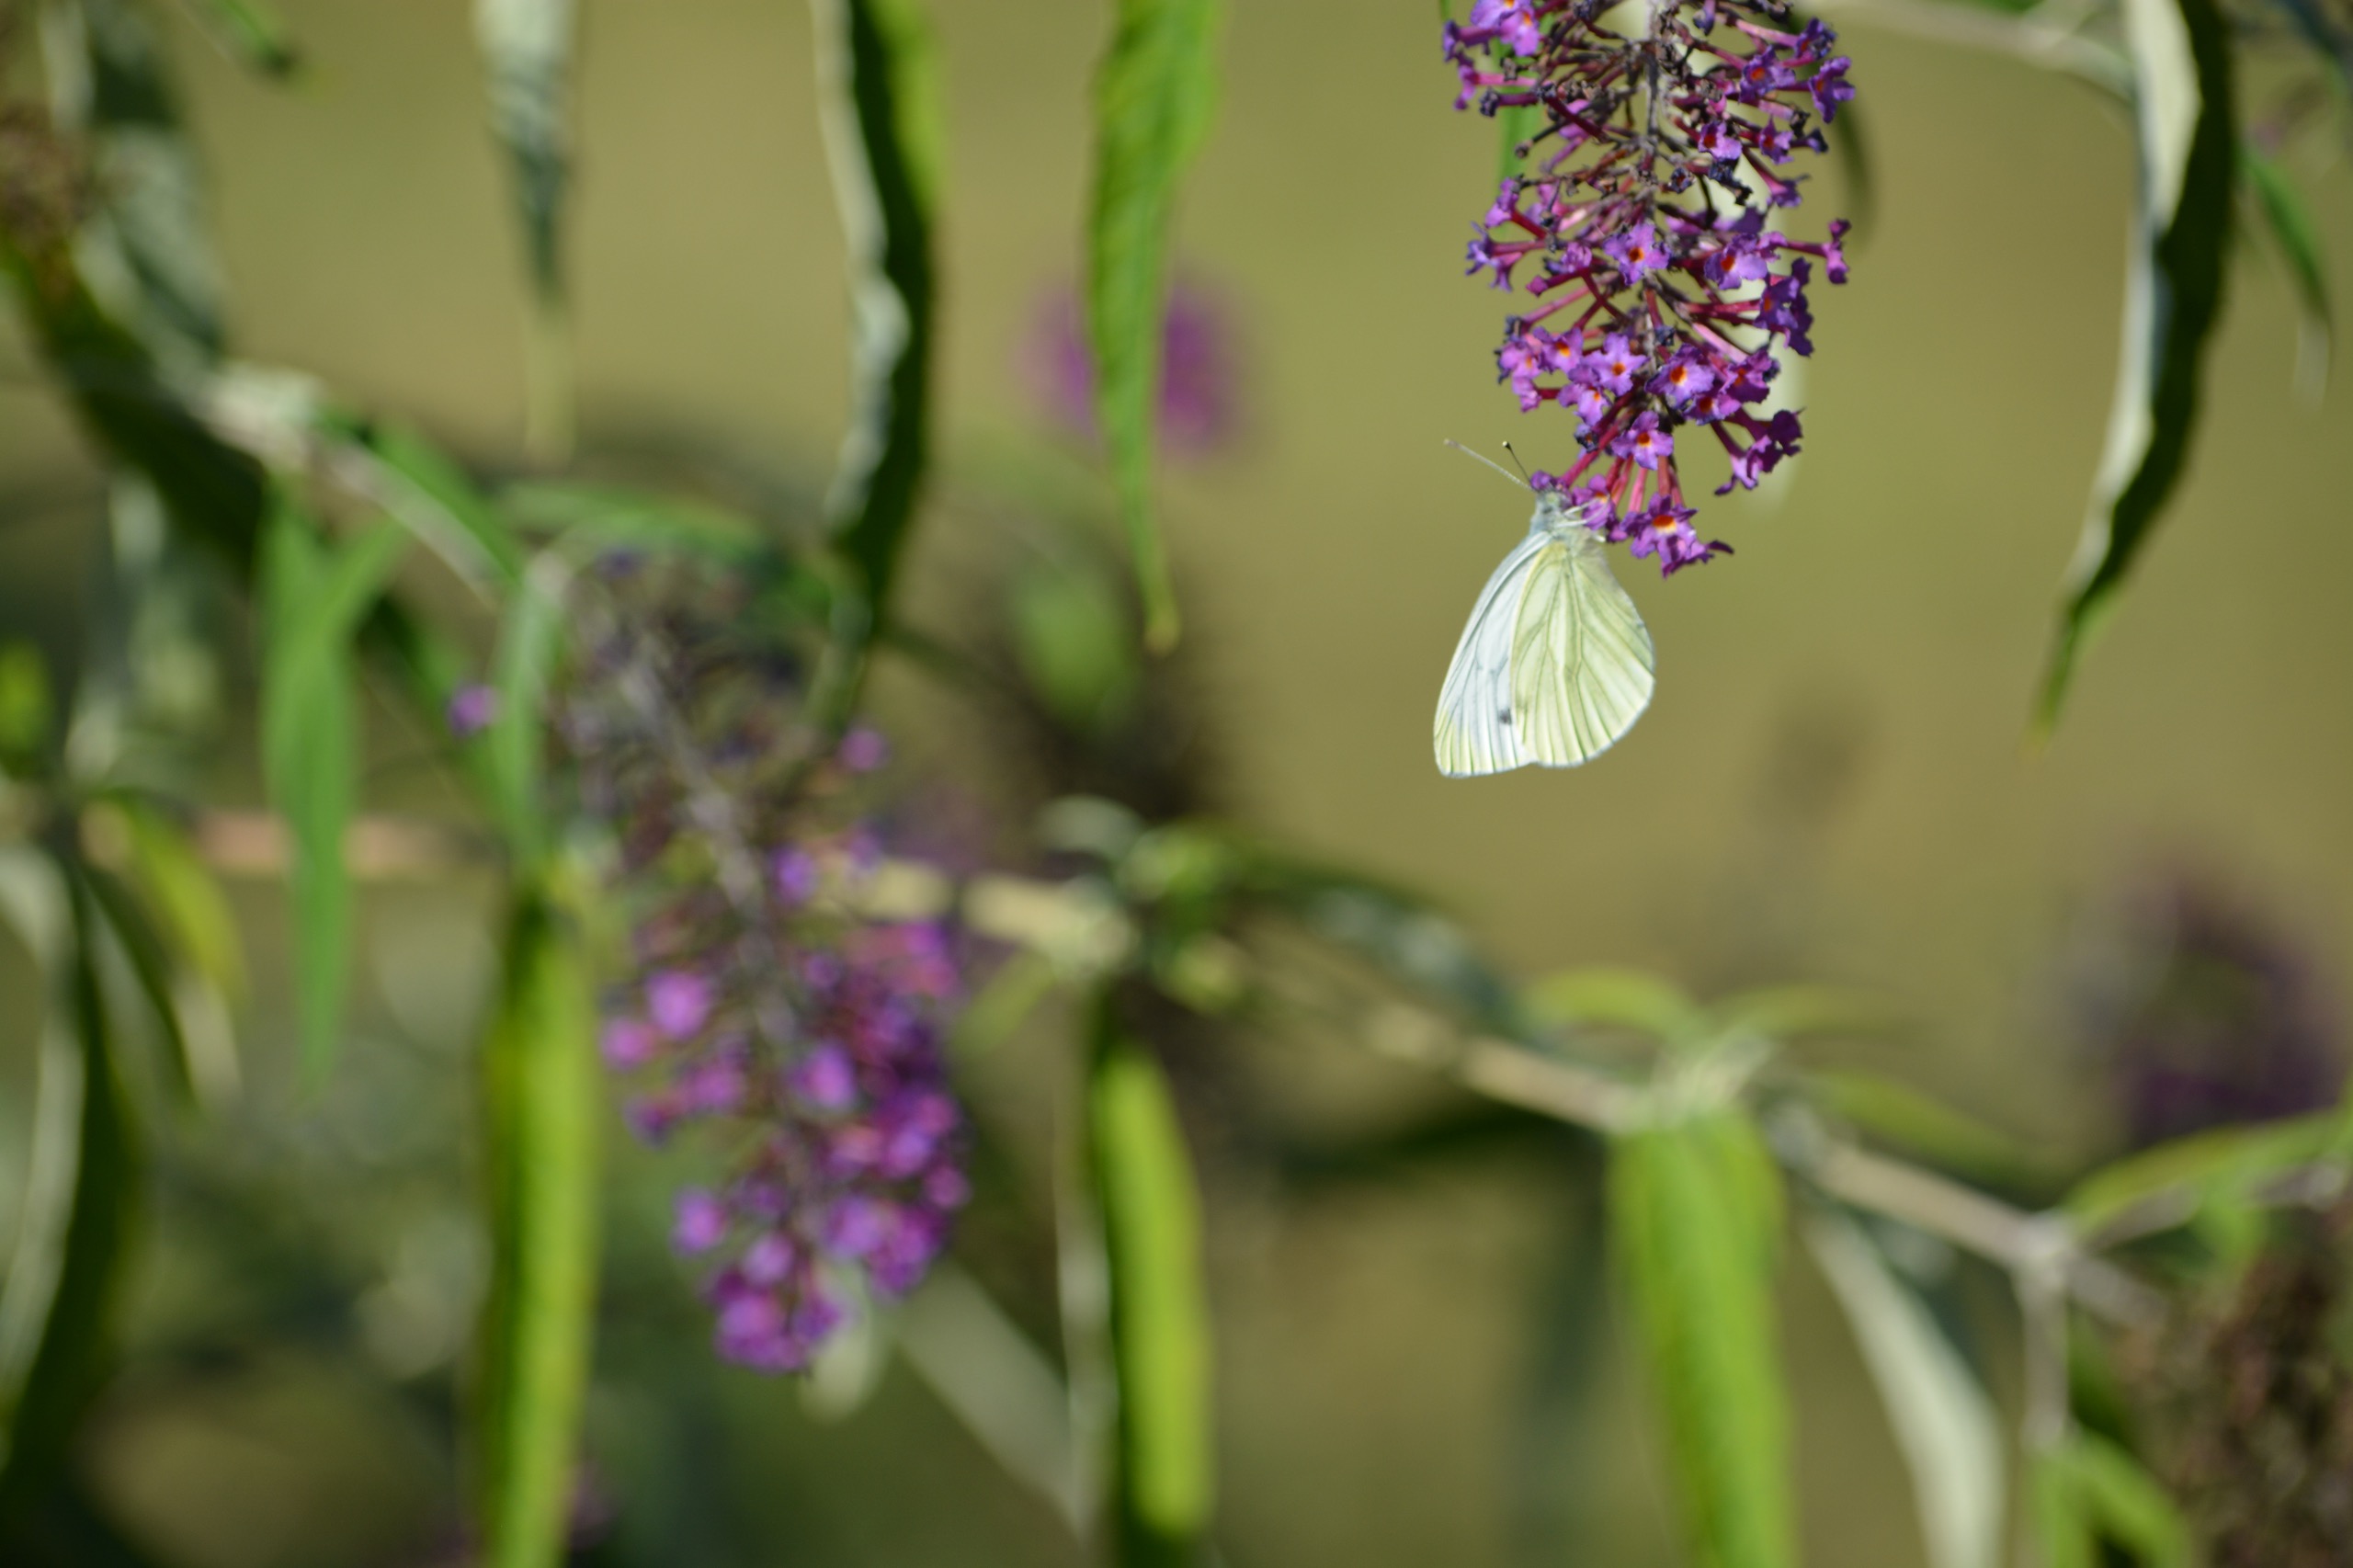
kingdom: Animalia
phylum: Arthropoda
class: Insecta
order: Lepidoptera
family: Pieridae
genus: Pieris
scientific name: Pieris napi
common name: Grønåret kålsommerfugl
